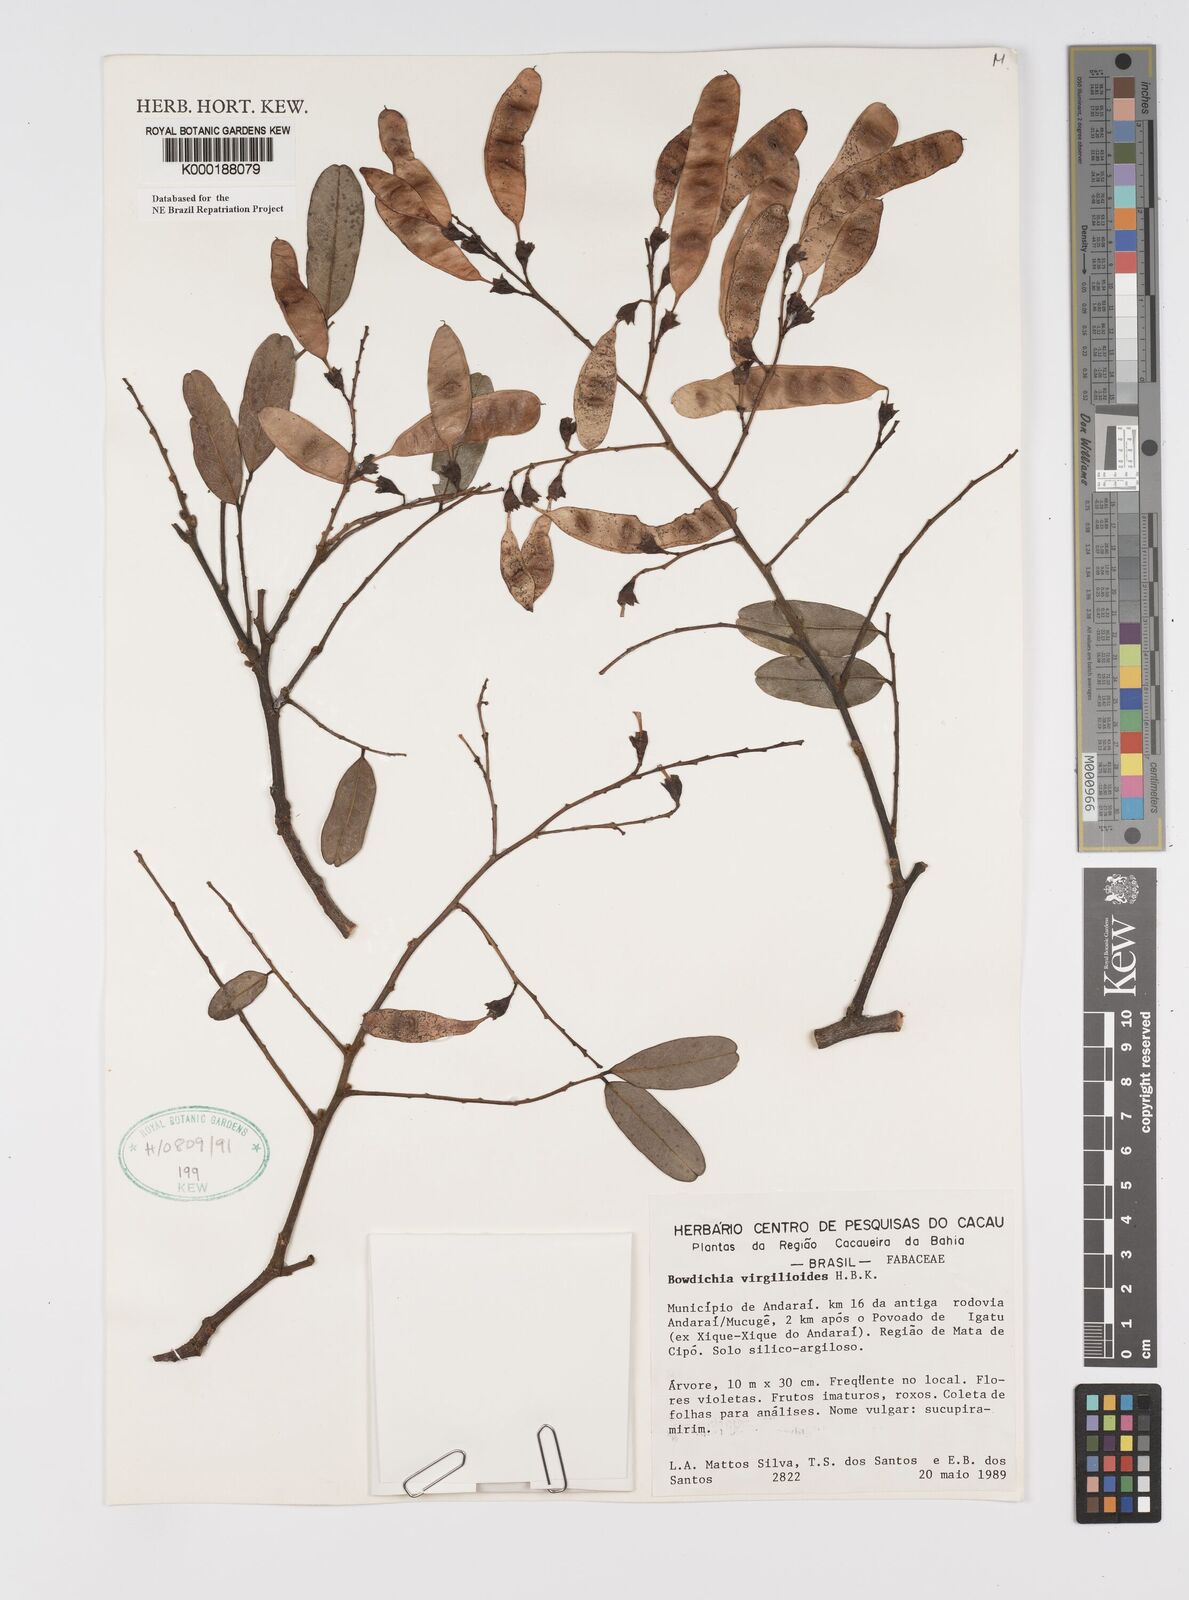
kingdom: Plantae
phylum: Tracheophyta
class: Magnoliopsida
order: Fabales
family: Fabaceae
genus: Bowdichia
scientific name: Bowdichia virgilioides
